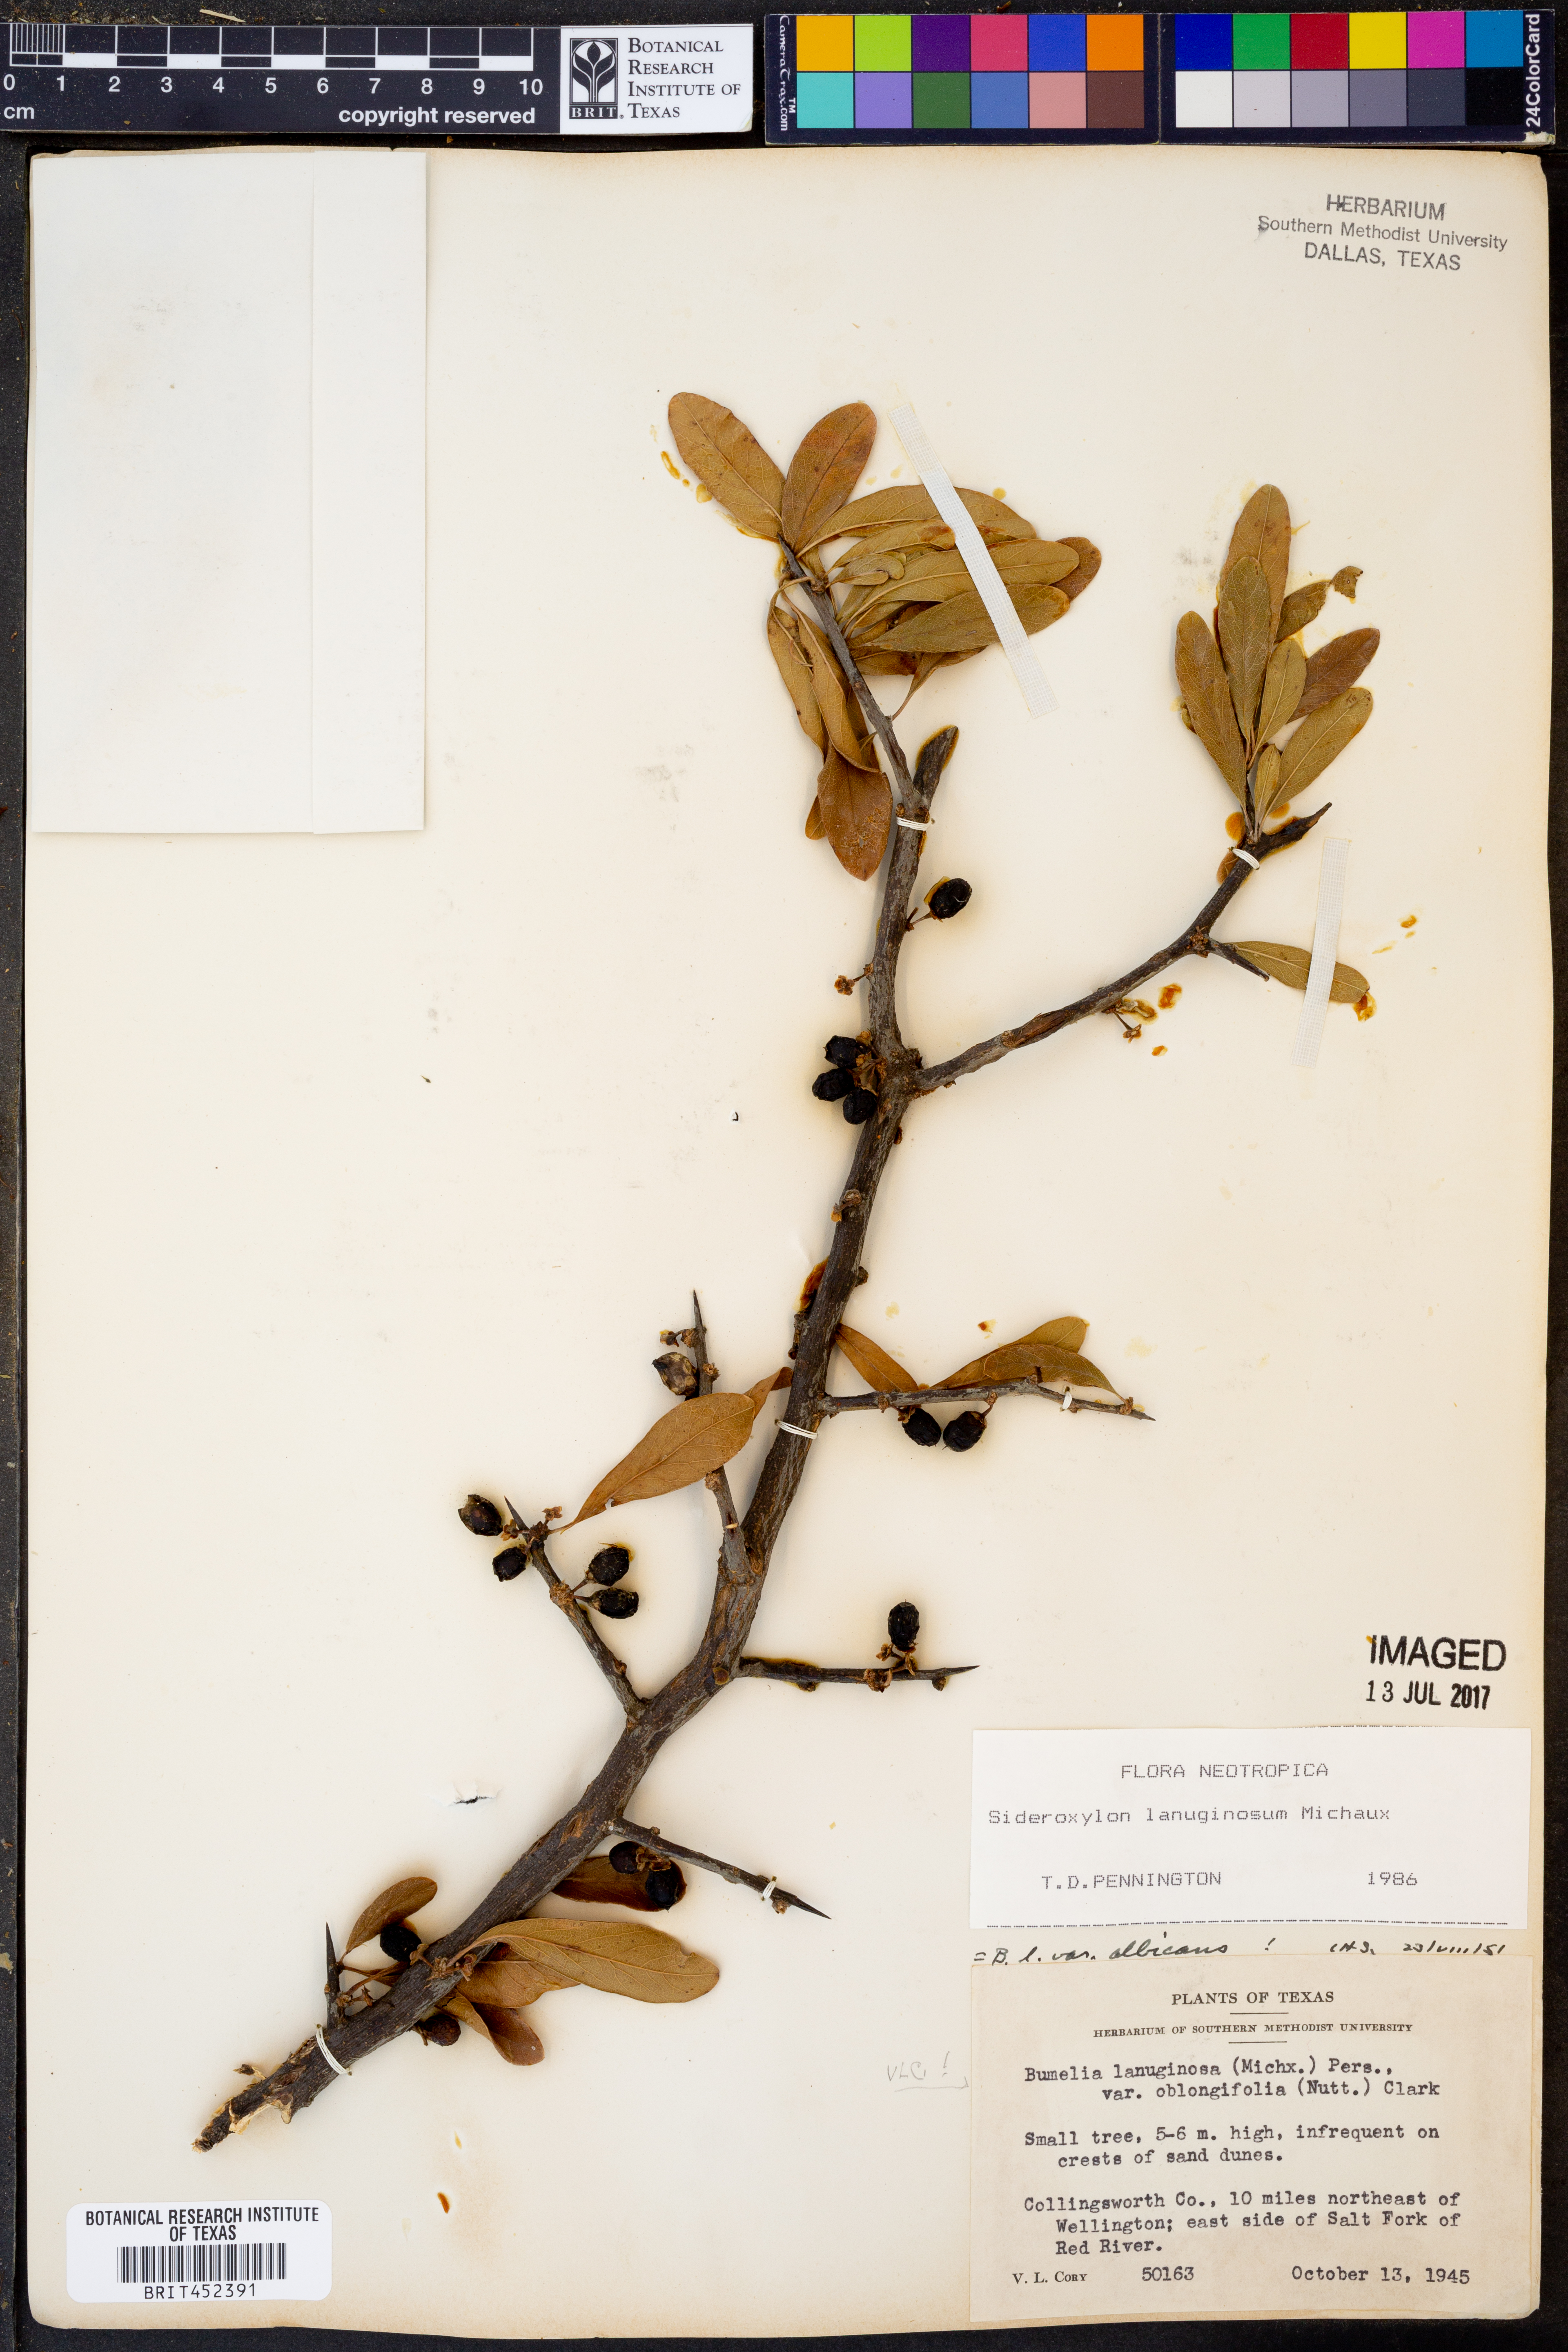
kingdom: Plantae
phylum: Tracheophyta
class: Magnoliopsida
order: Ericales
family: Sapotaceae
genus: Sideroxylon
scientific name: Sideroxylon lanuginosum
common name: Chittamwood
